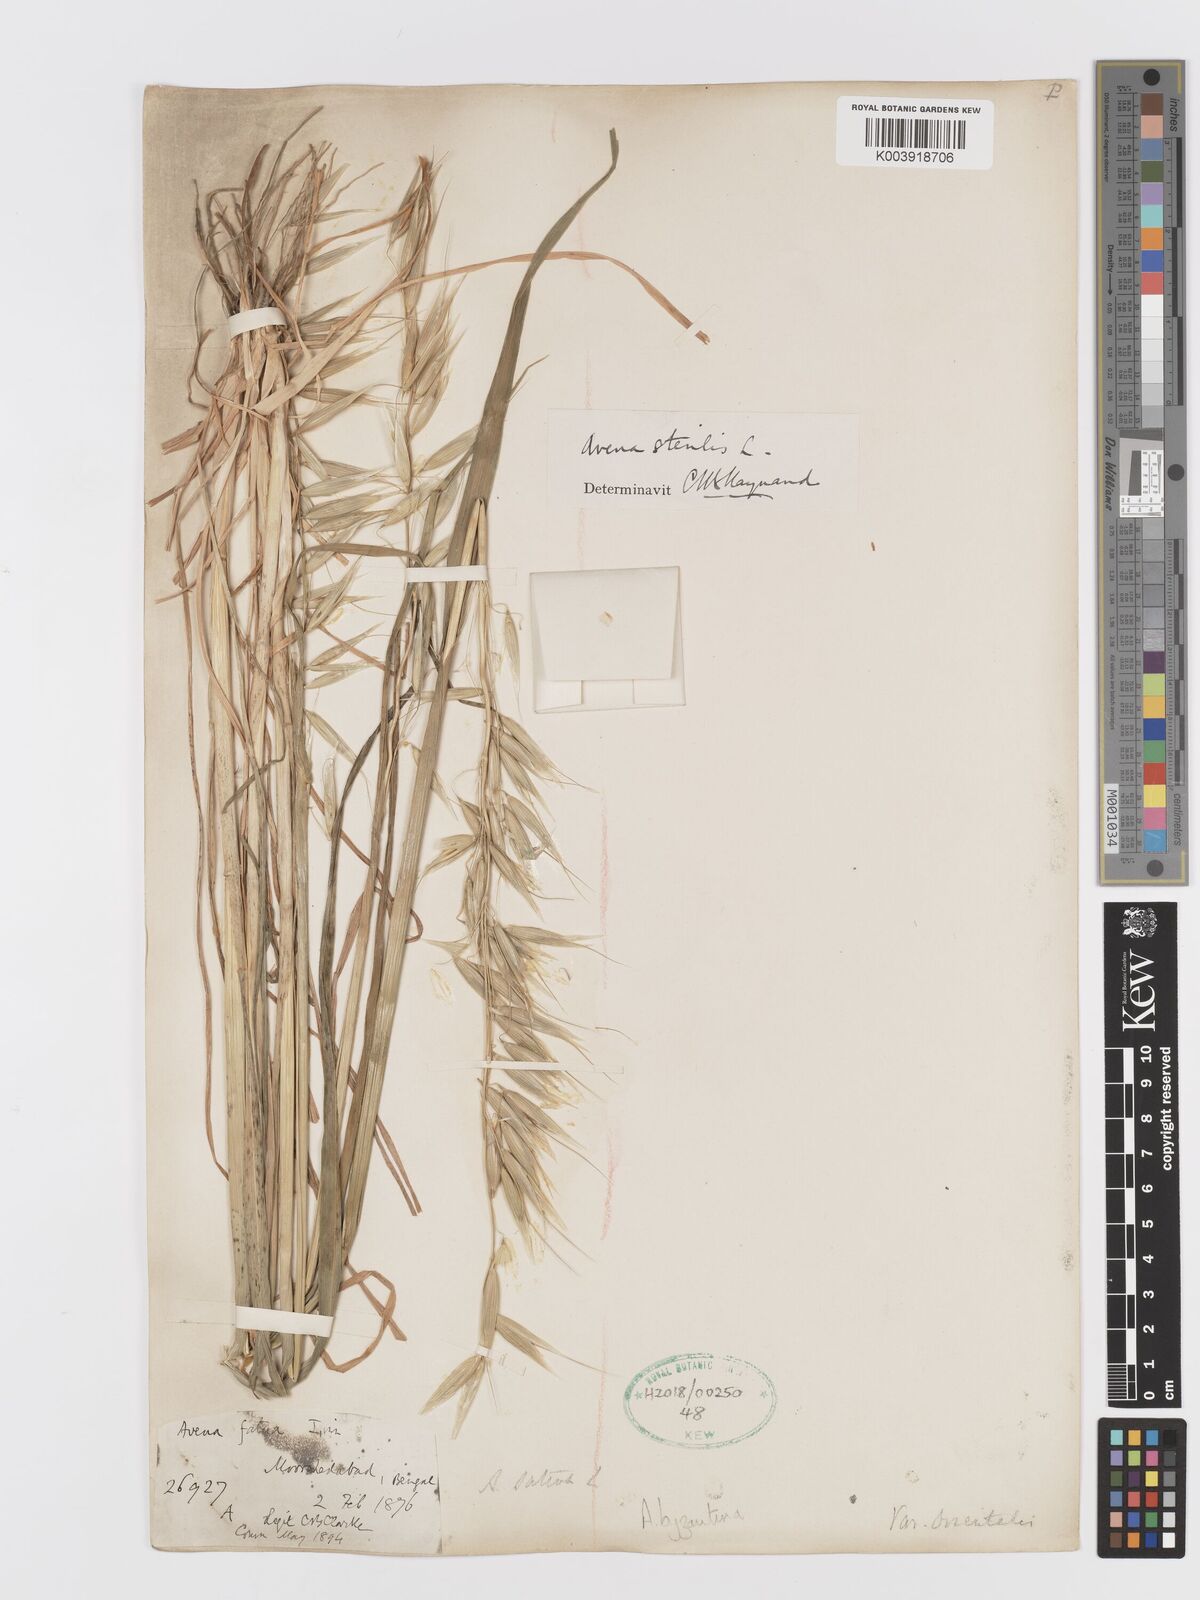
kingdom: Plantae
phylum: Tracheophyta
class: Liliopsida
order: Poales
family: Poaceae
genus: Avena
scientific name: Avena byzantina
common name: Algerian oat
